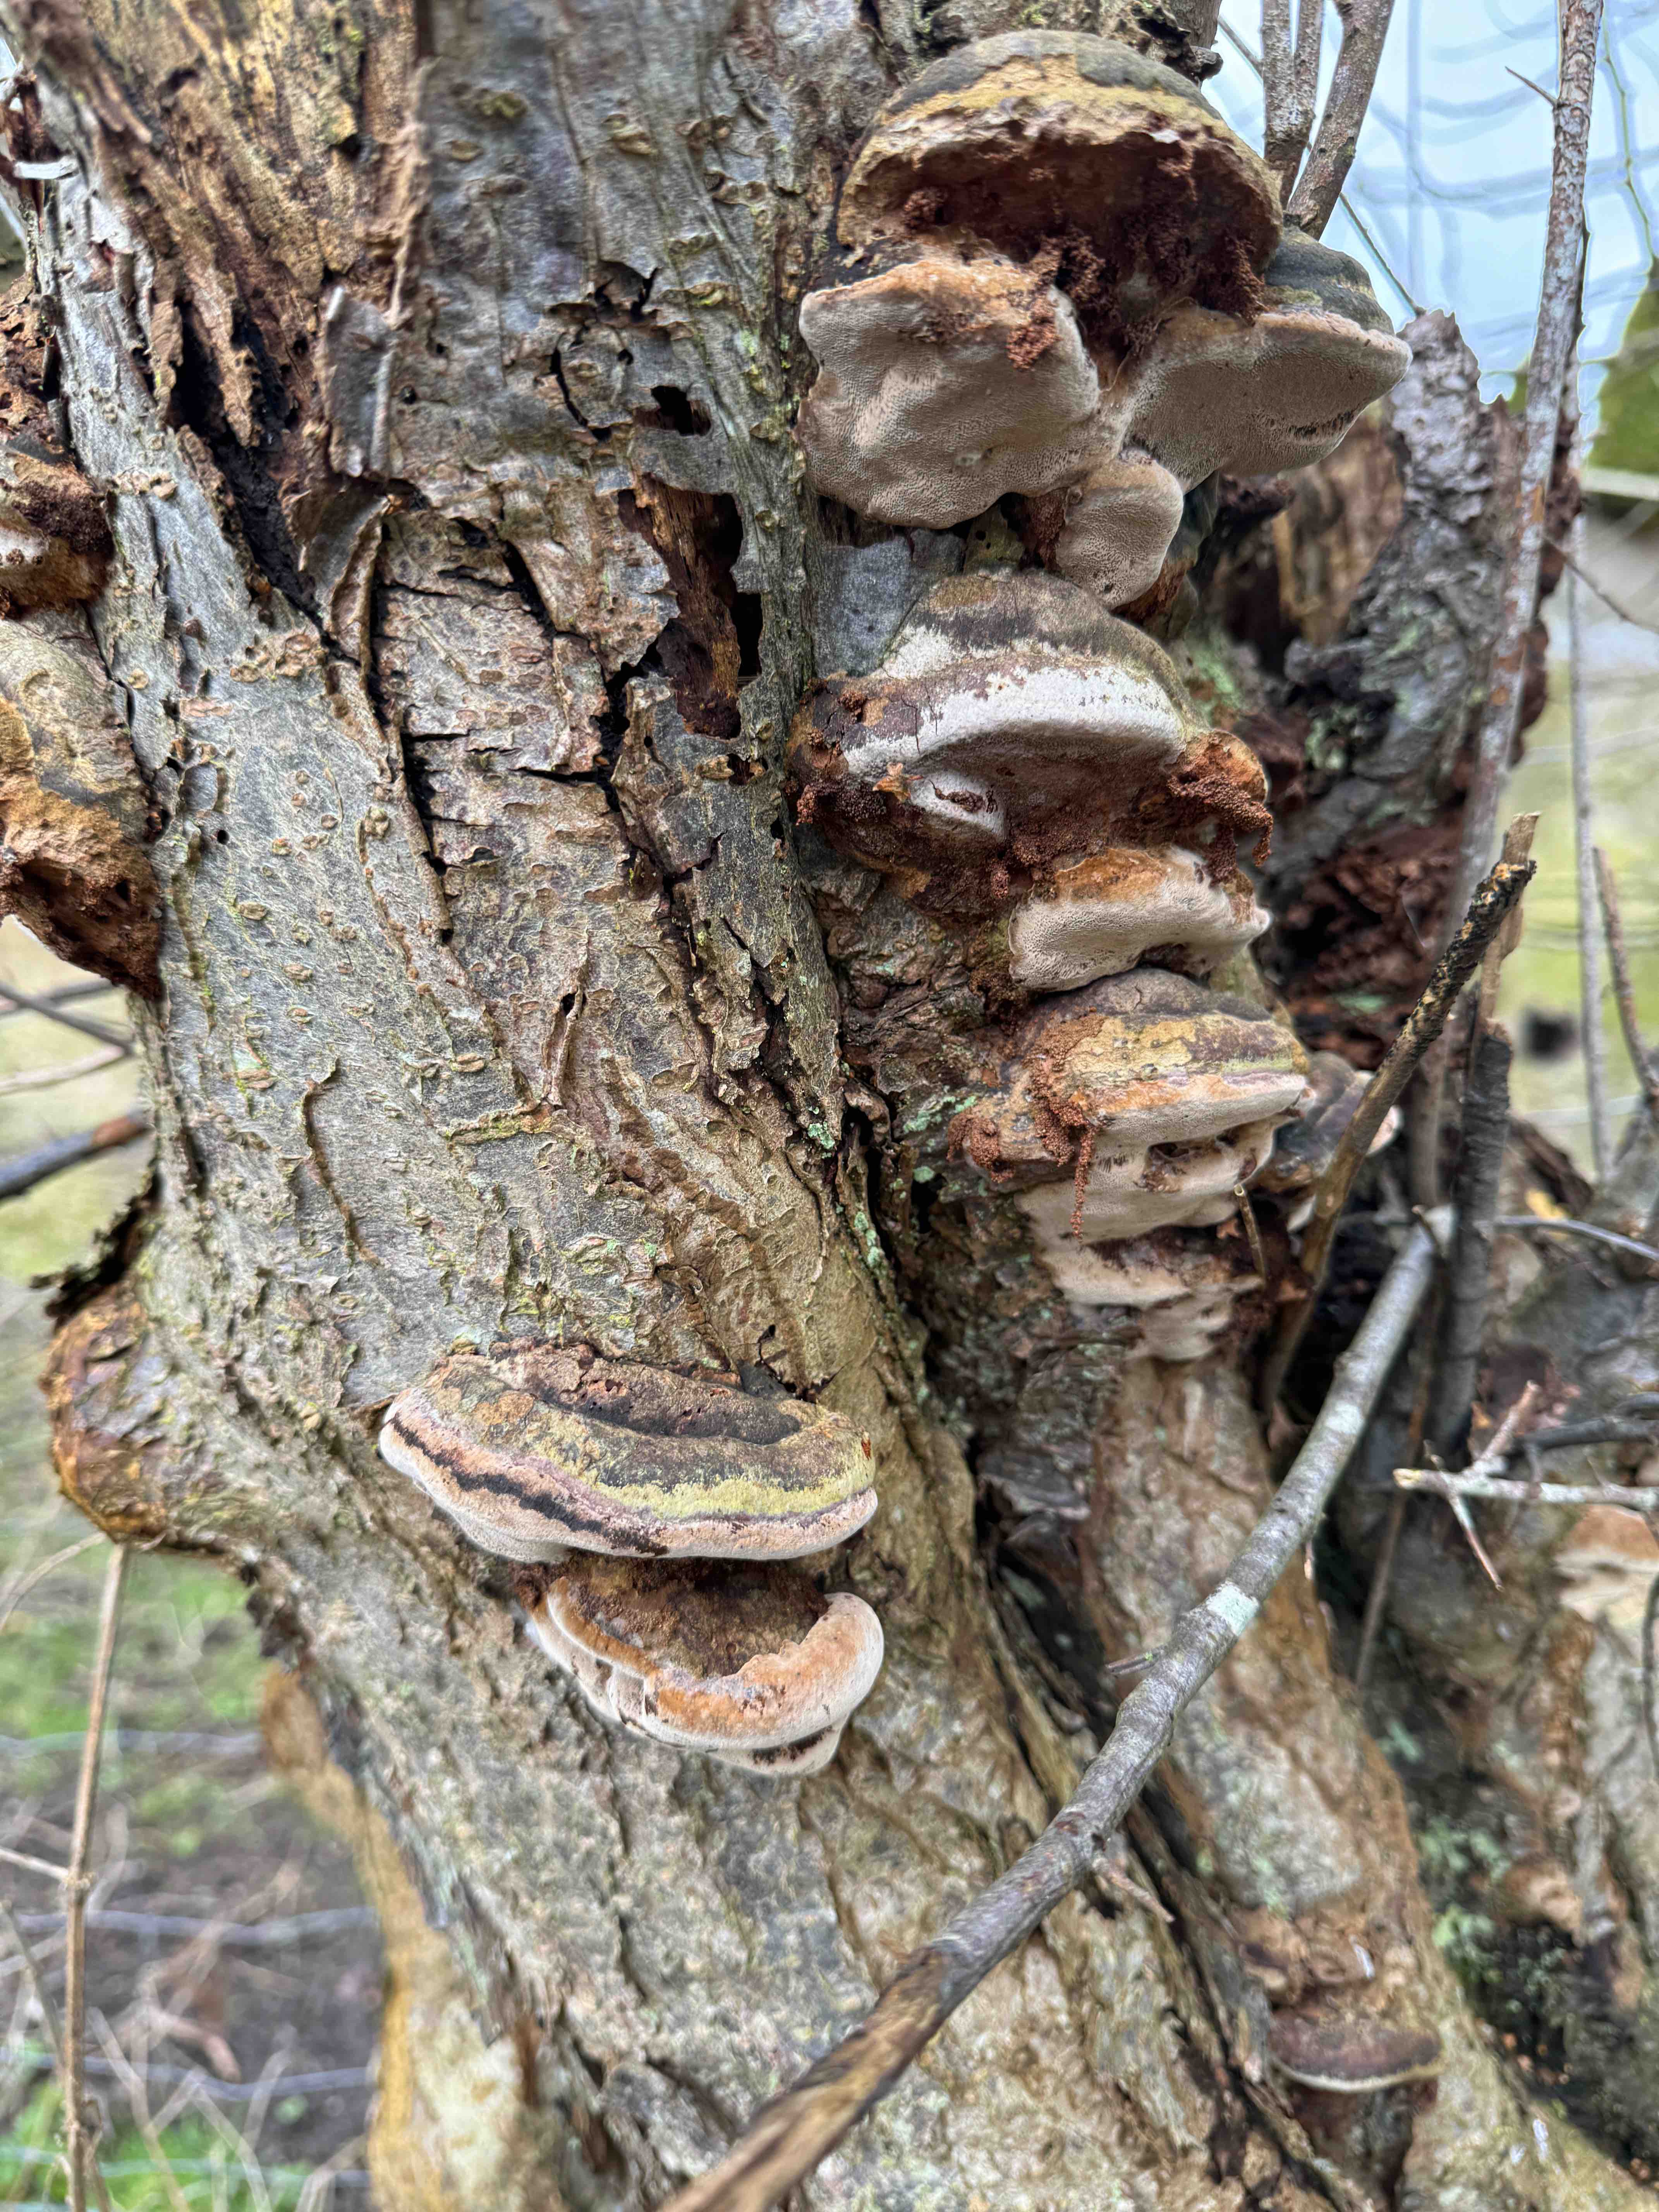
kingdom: Fungi
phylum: Basidiomycota
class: Agaricomycetes
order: Hymenochaetales
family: Hymenochaetaceae
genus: Phellinus
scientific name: Phellinus pomaceus
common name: blomme-ildporesvamp
